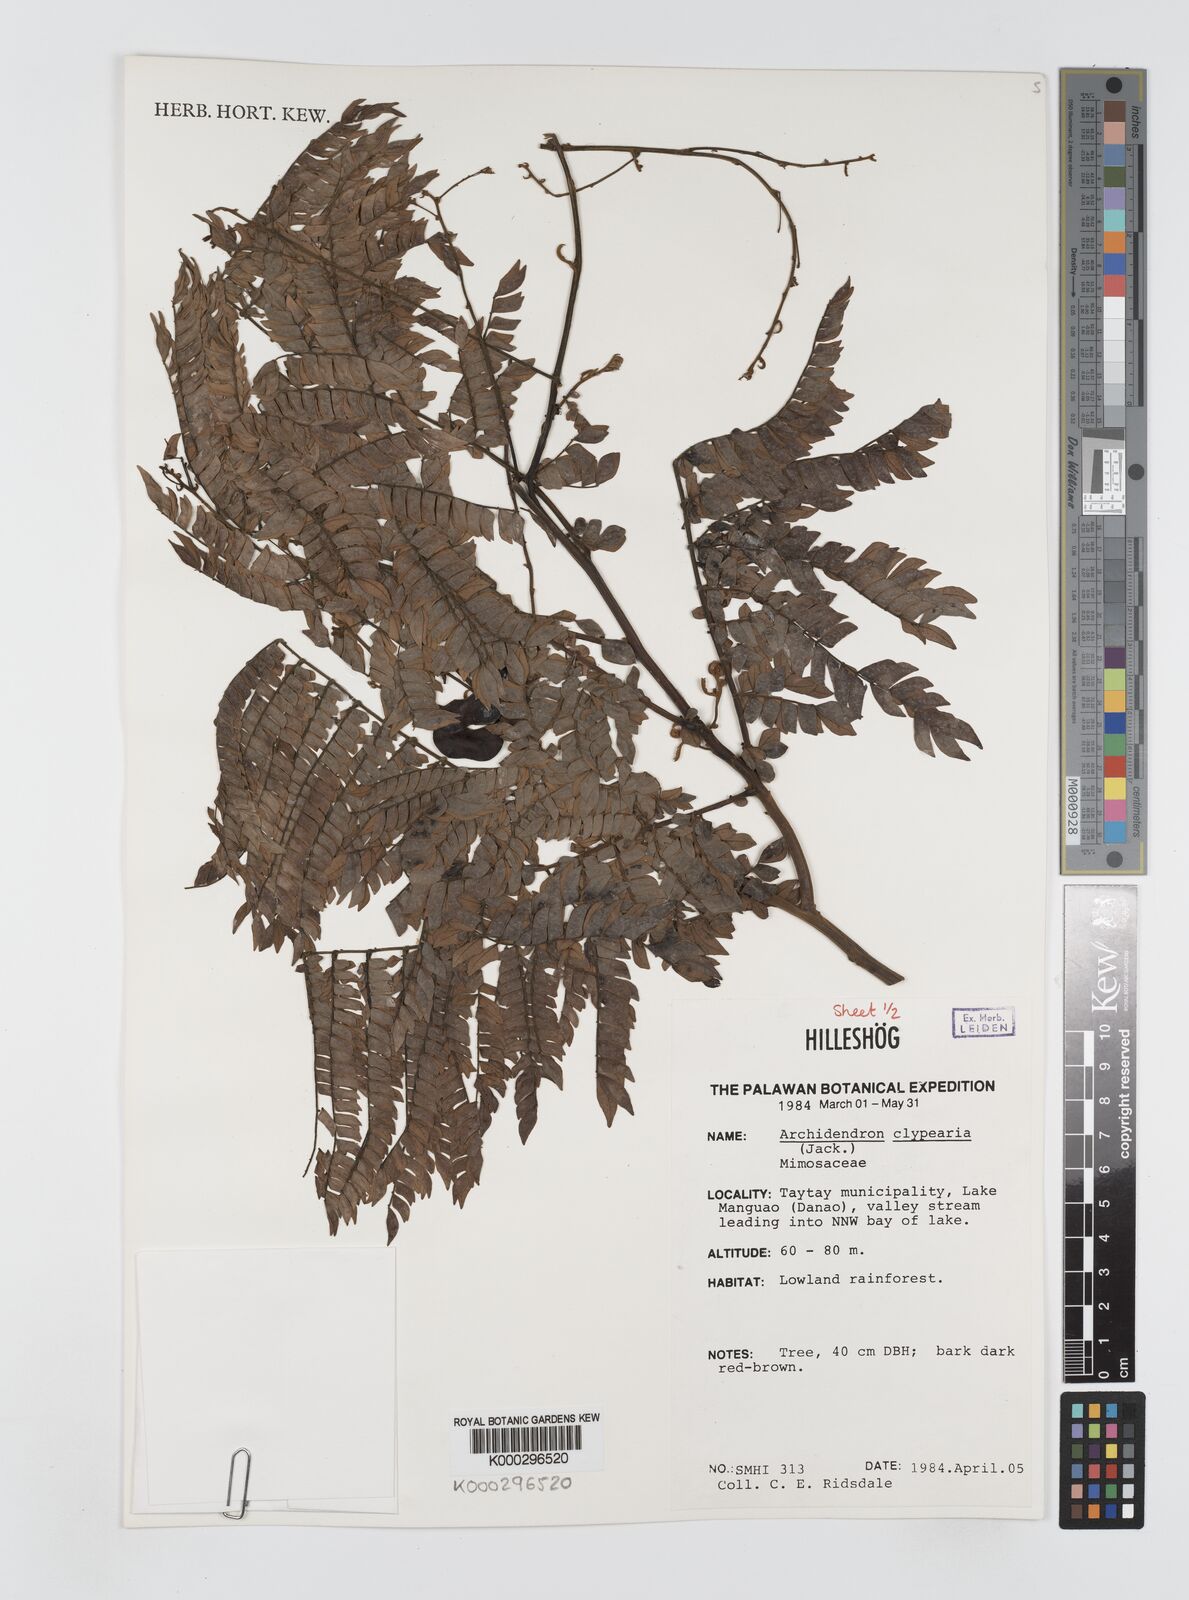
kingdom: Plantae
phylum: Tracheophyta
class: Magnoliopsida
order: Fabales
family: Fabaceae
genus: Archidendron
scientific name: Archidendron clypearia
